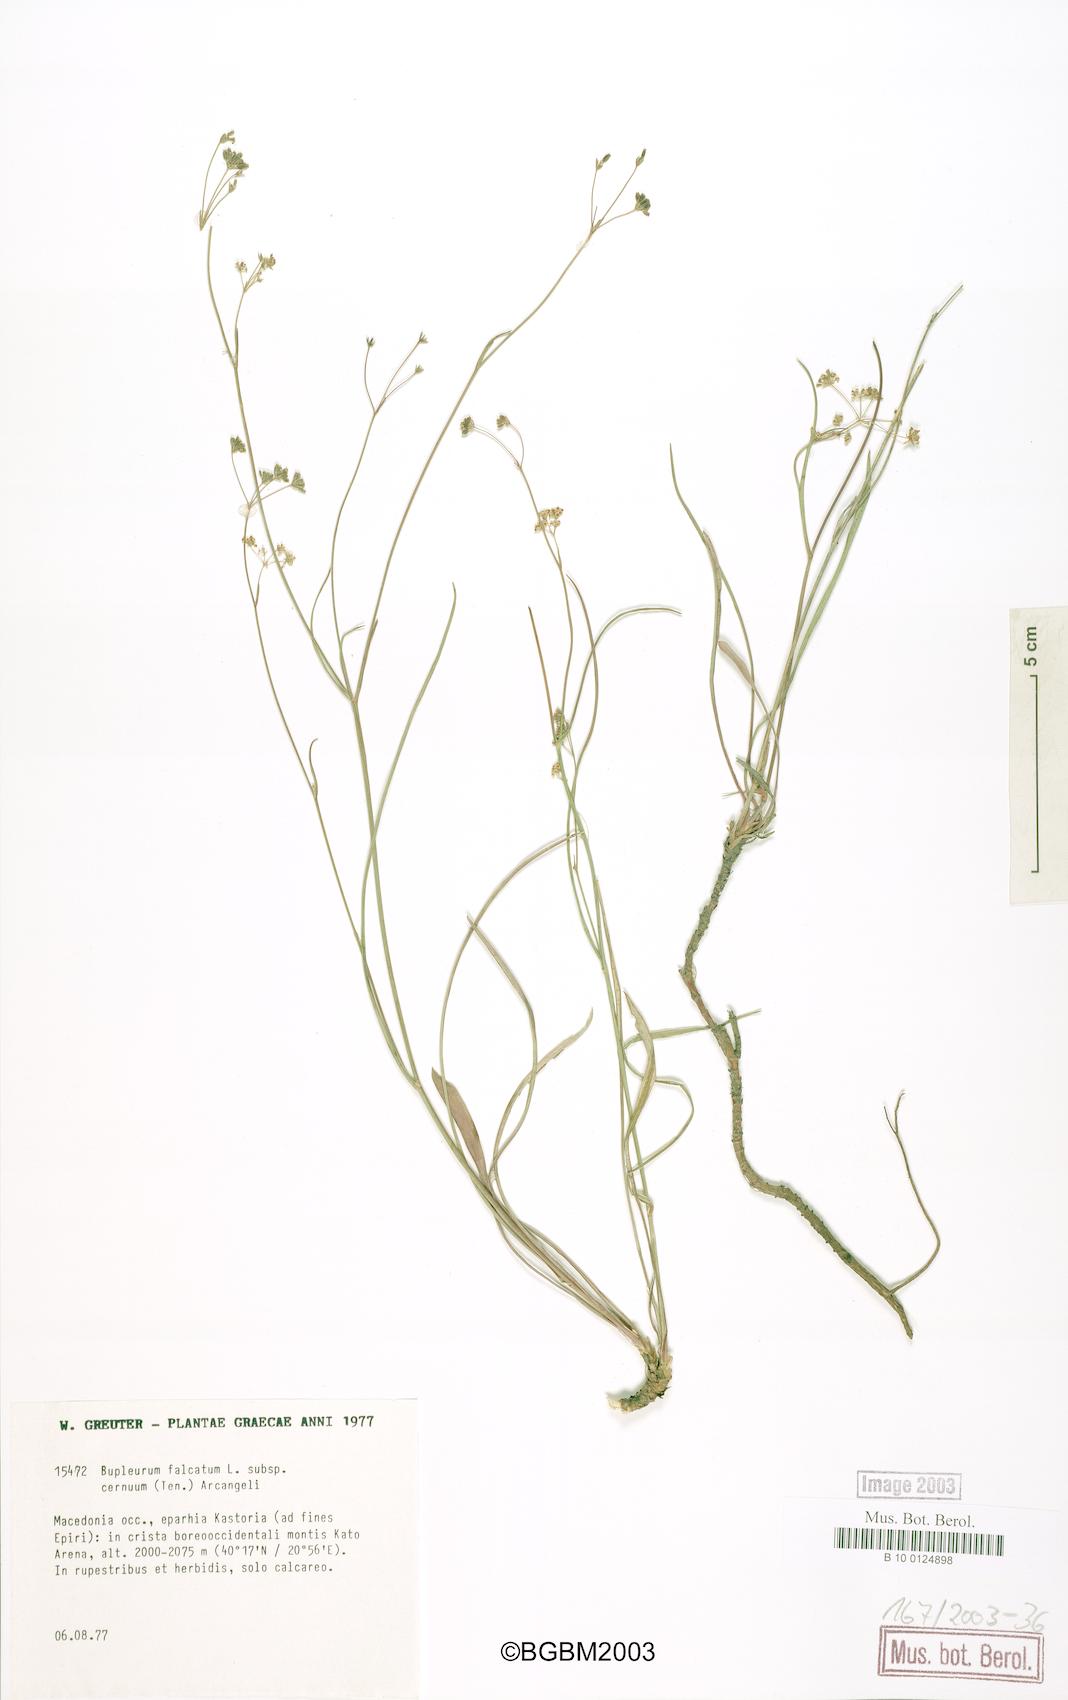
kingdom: Plantae
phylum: Tracheophyta
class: Magnoliopsida
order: Apiales
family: Apiaceae
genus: Bupleurum
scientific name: Bupleurum exaltatum
